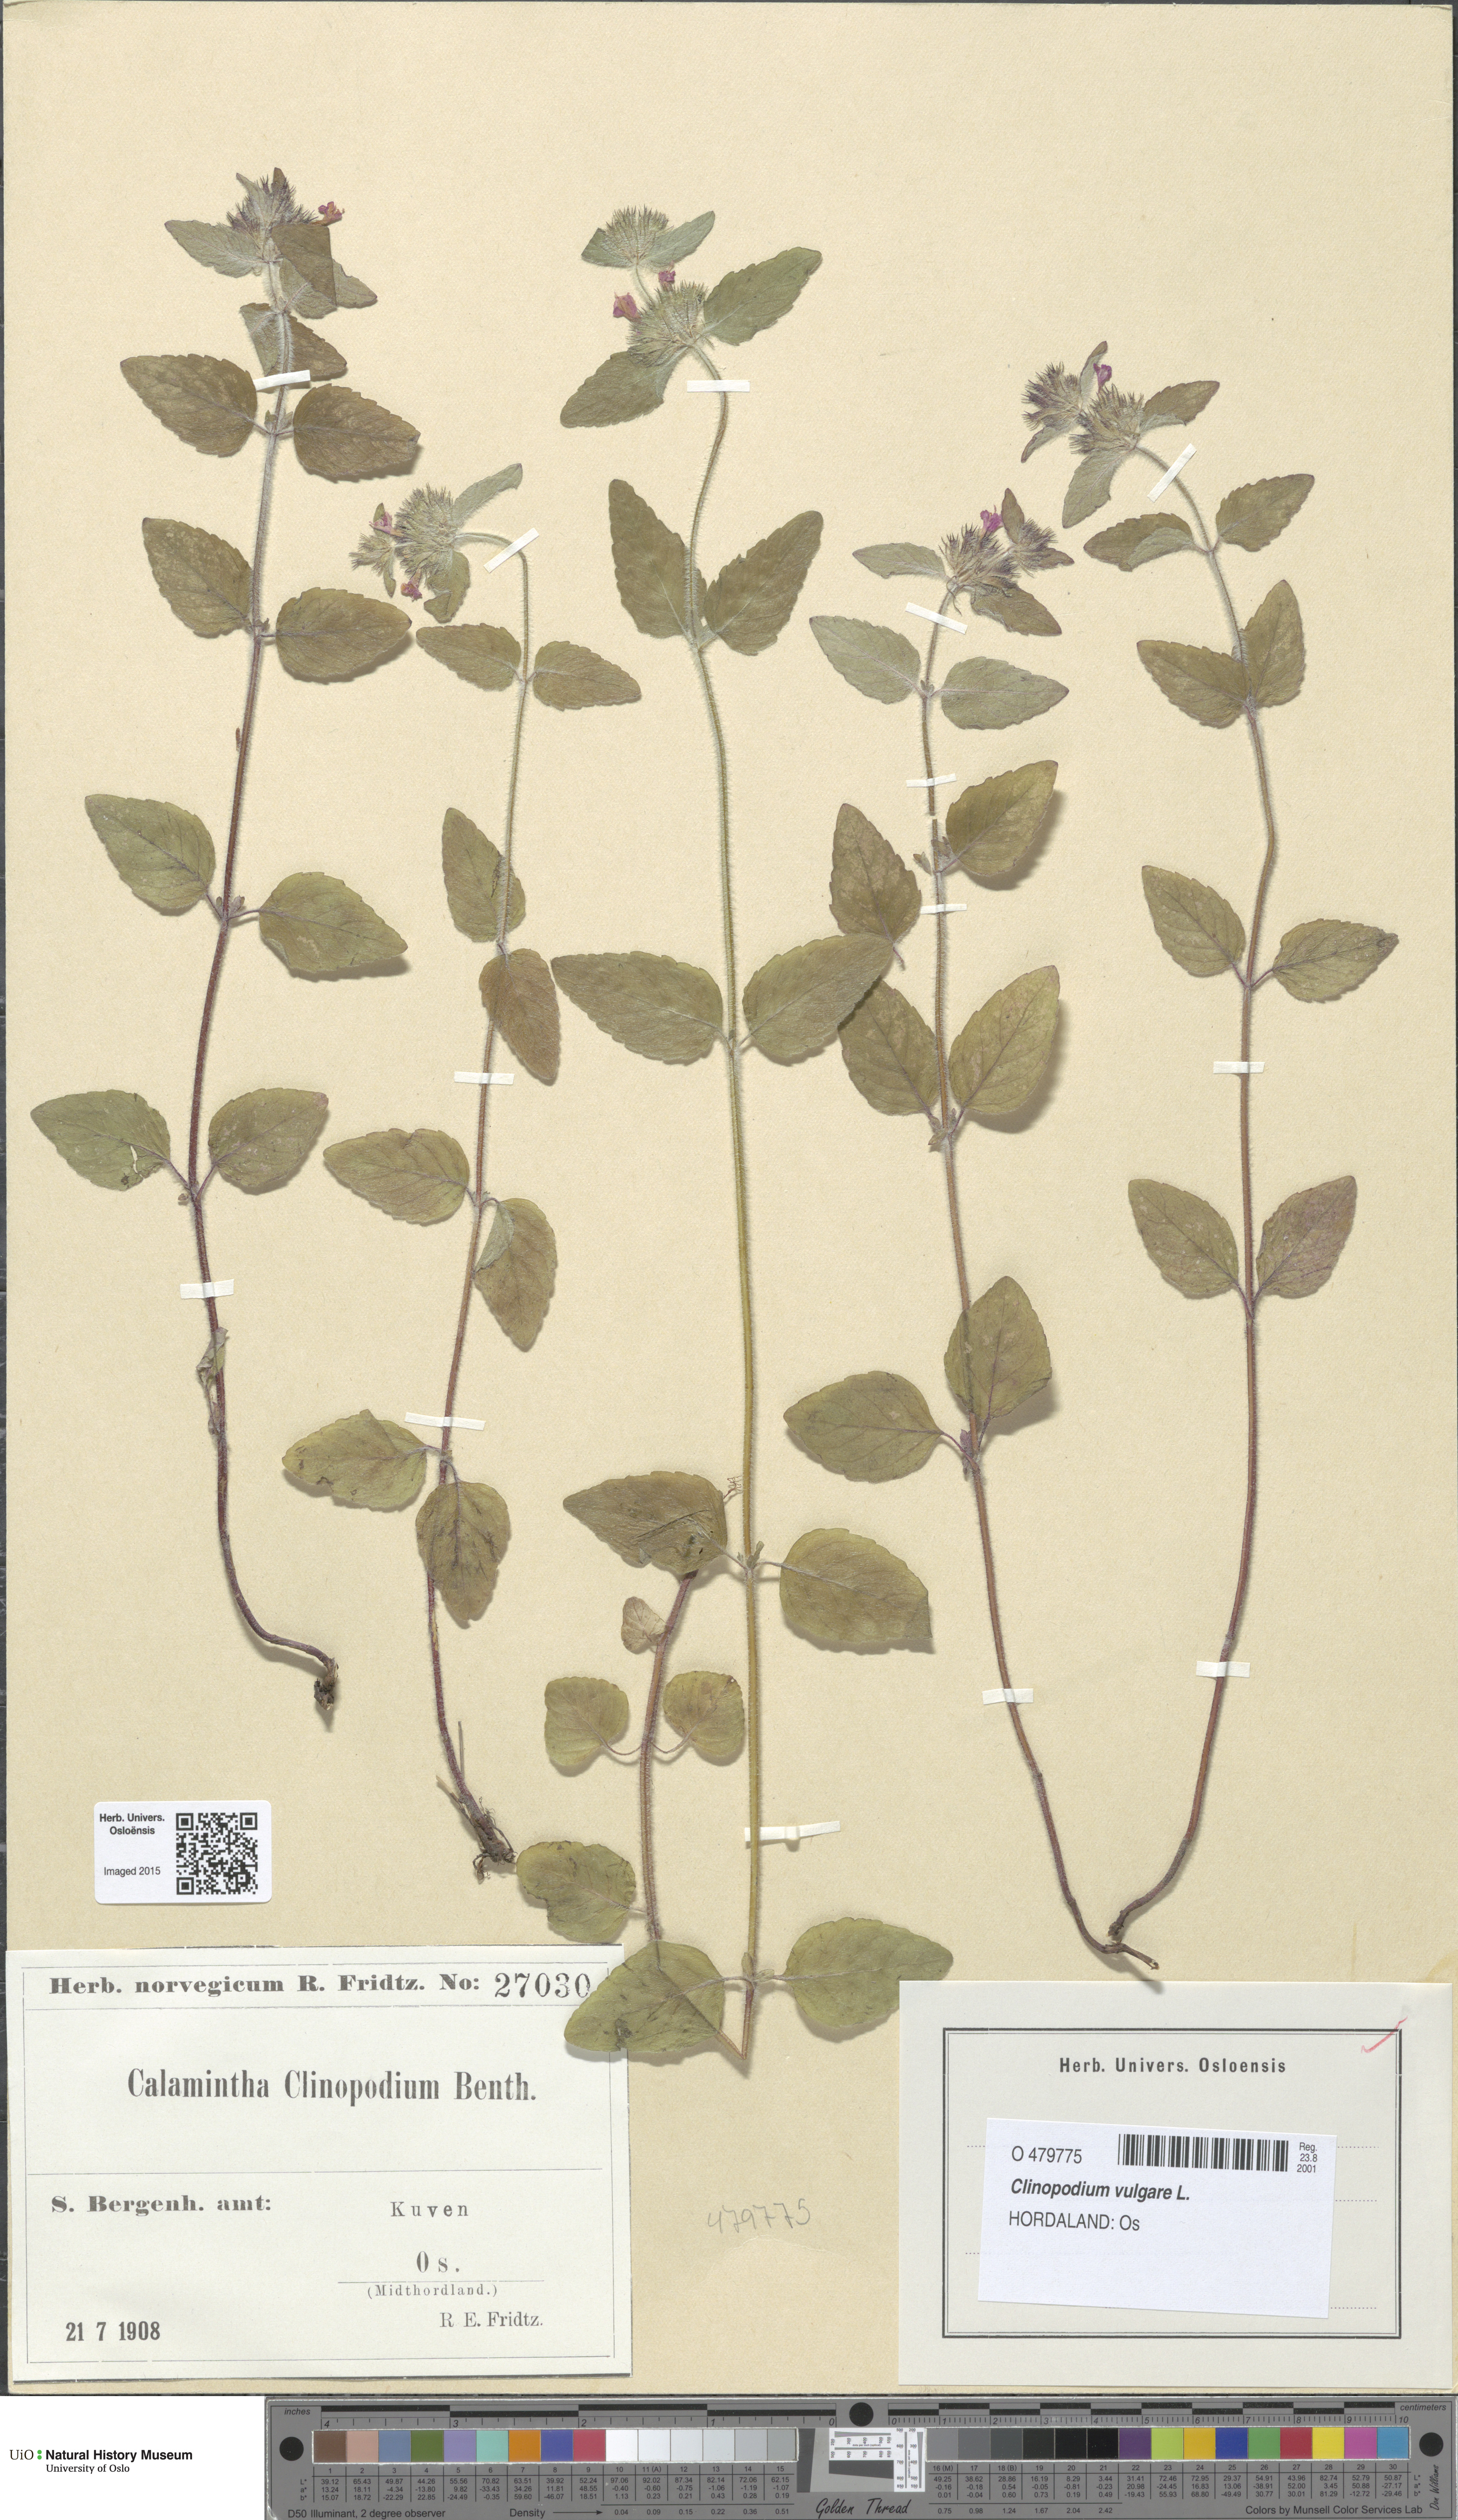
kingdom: Plantae
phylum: Tracheophyta
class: Magnoliopsida
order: Lamiales
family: Lamiaceae
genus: Clinopodium
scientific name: Clinopodium vulgare
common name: Wild basil
